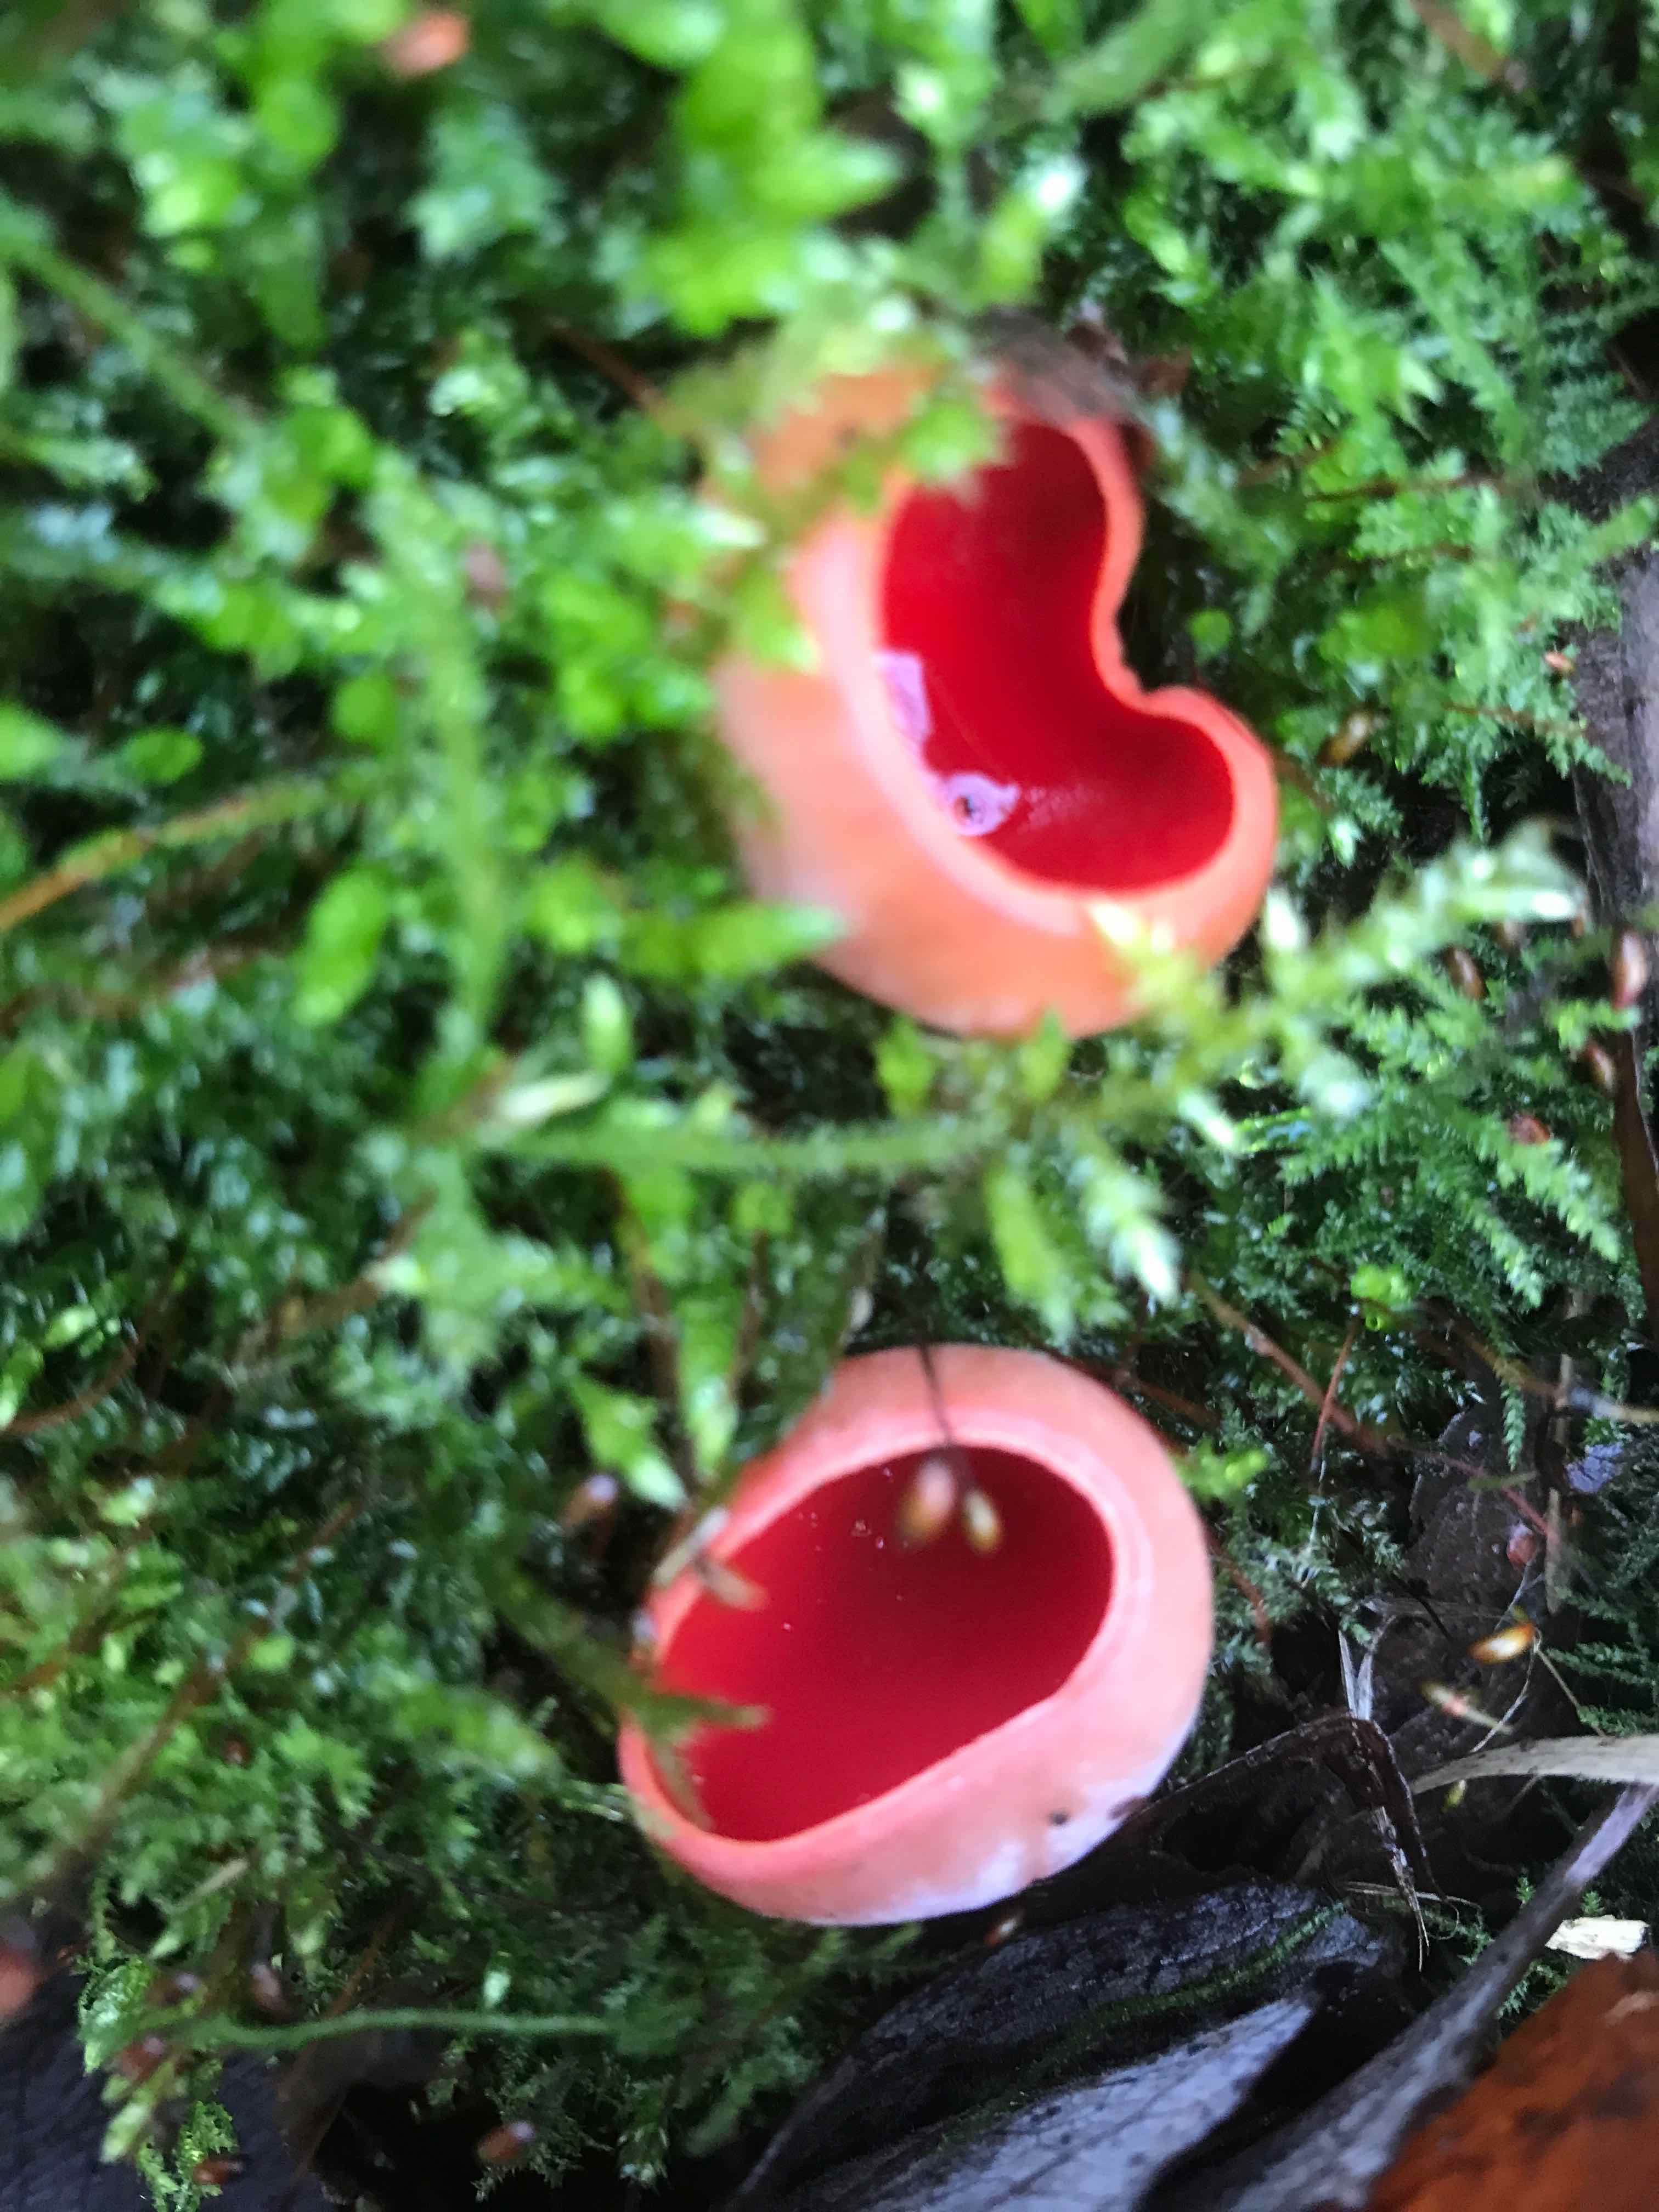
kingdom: Fungi
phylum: Ascomycota
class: Pezizomycetes
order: Pezizales
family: Sarcoscyphaceae
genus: Sarcoscypha
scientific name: Sarcoscypha austriaca
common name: krølhåret pragtbæger
